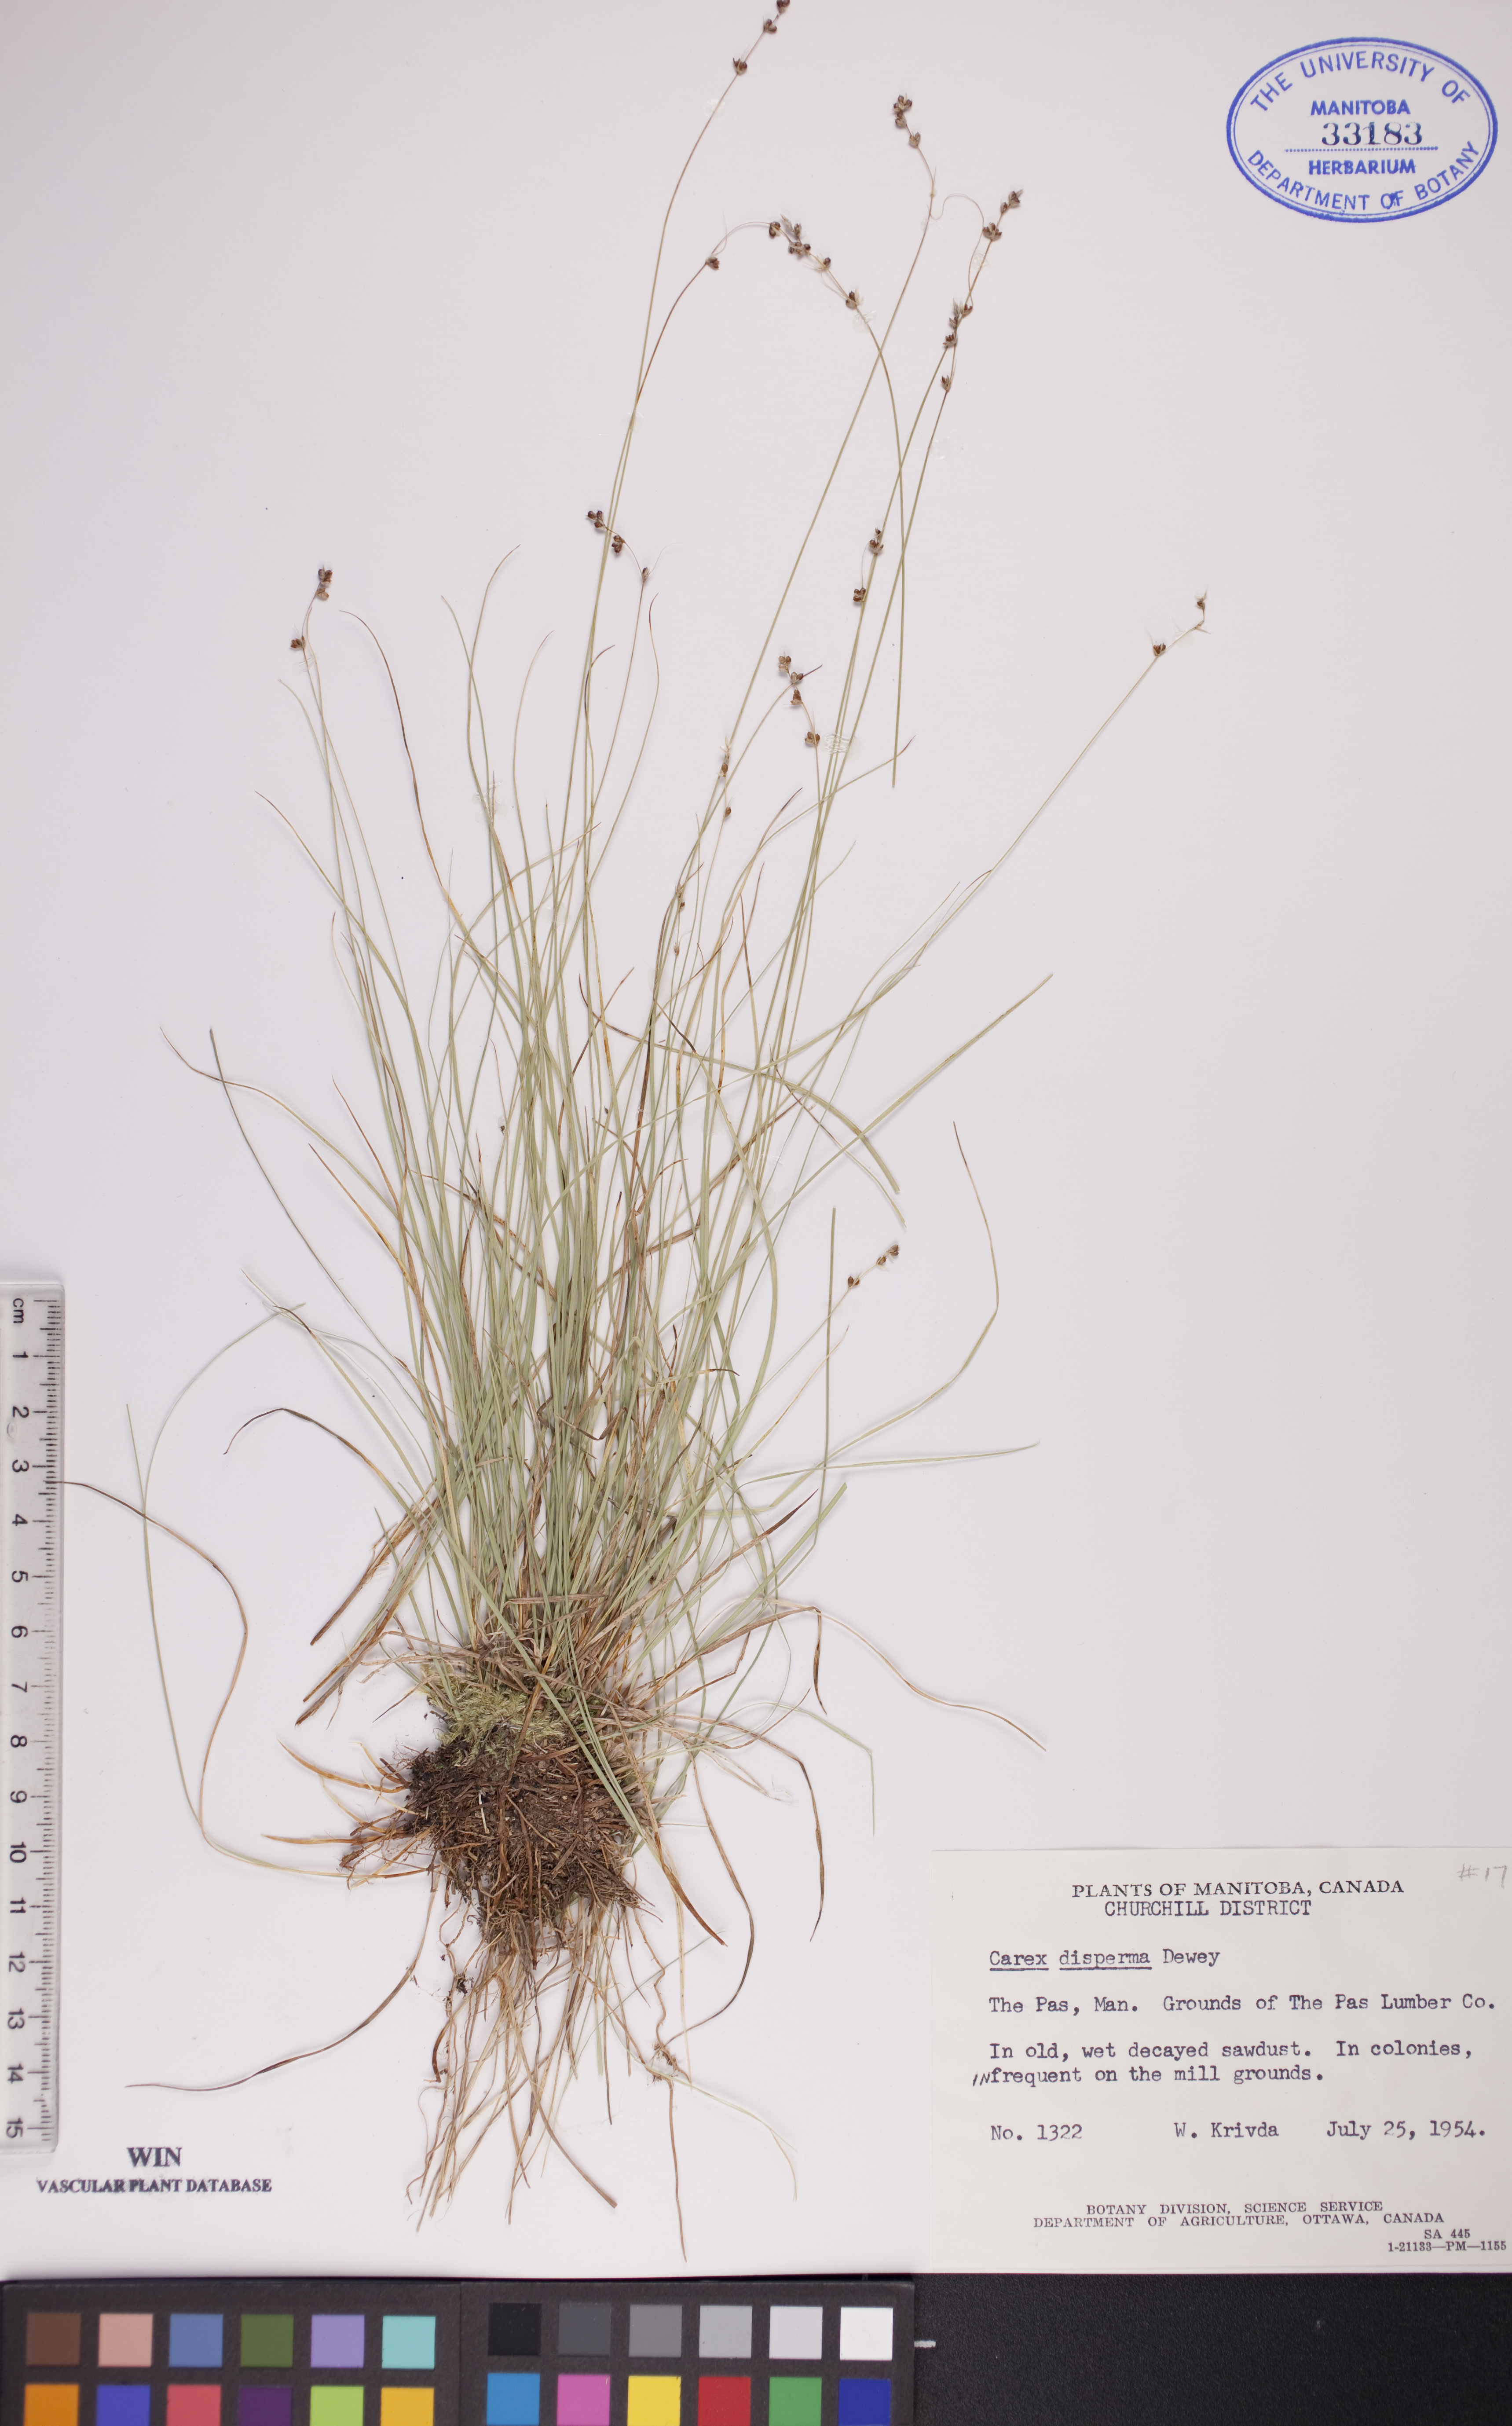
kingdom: Plantae
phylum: Tracheophyta
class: Liliopsida
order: Poales
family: Cyperaceae
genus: Carex
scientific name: Carex disperma
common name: Short-leaved sedge
